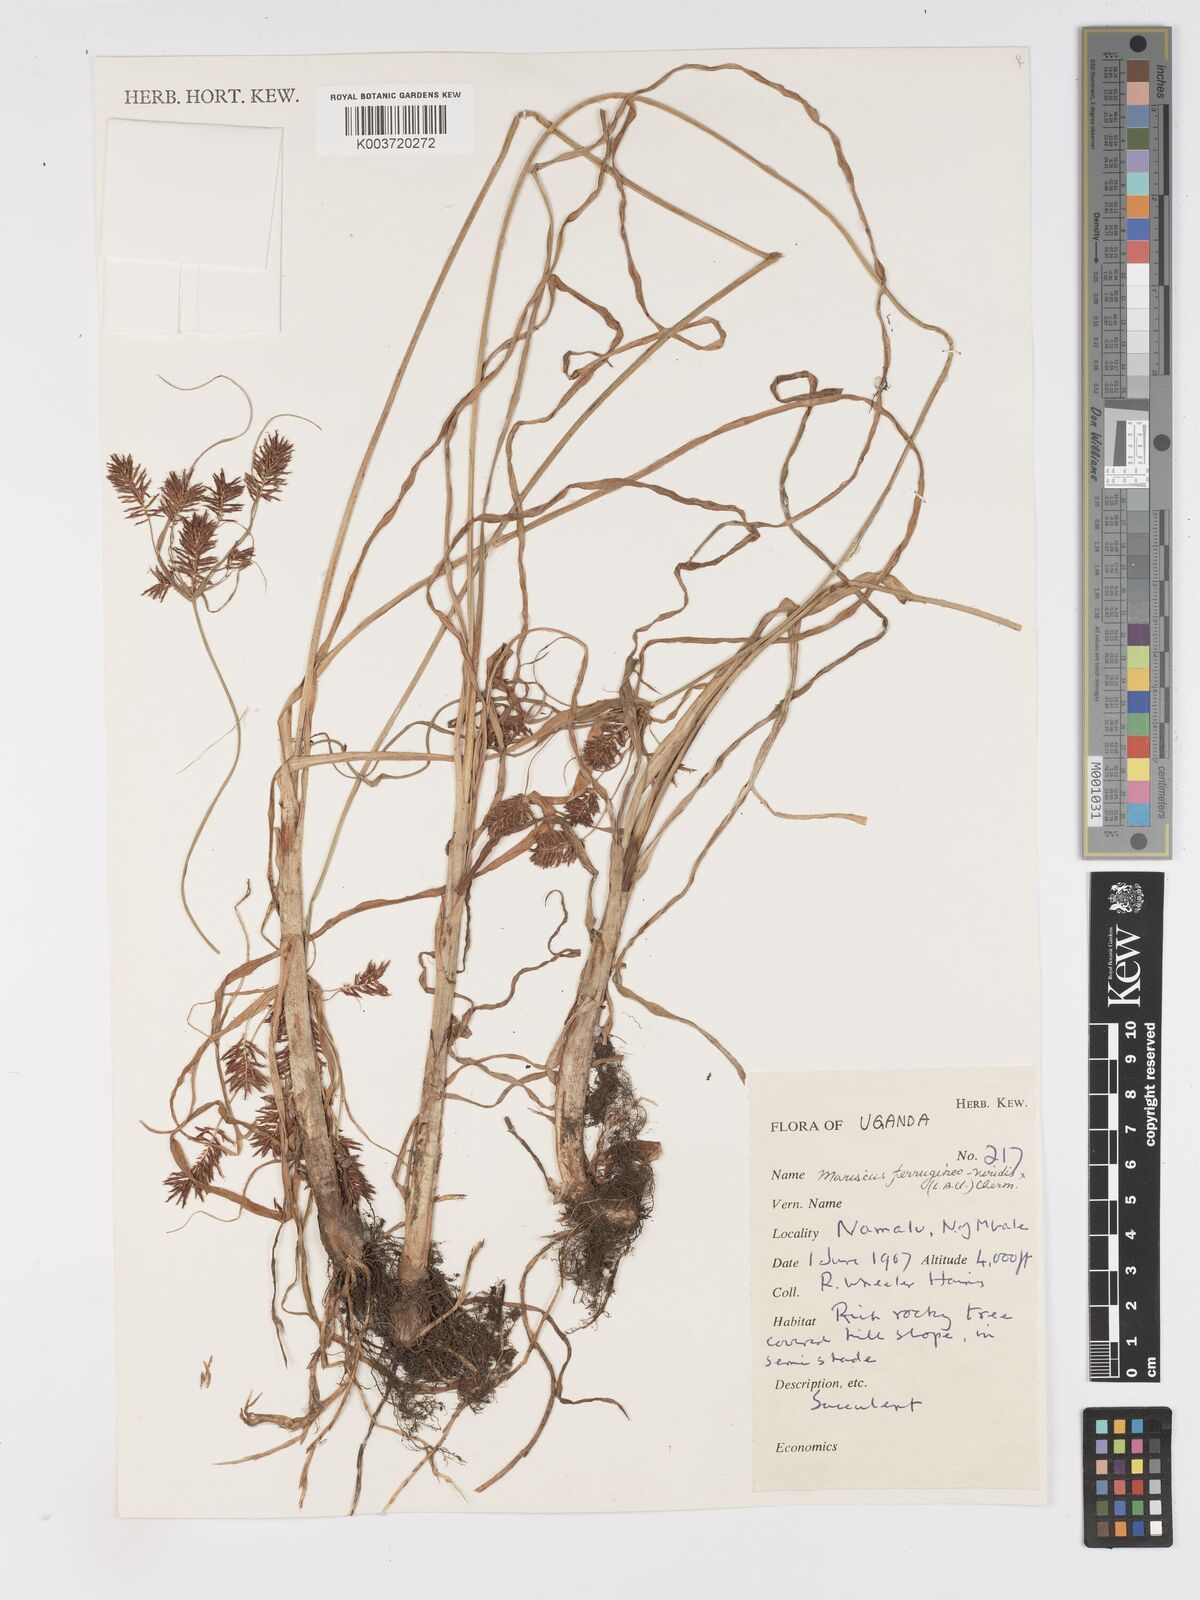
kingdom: Plantae
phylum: Tracheophyta
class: Liliopsida
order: Poales
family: Cyperaceae
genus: Cyperus
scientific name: Cyperus
